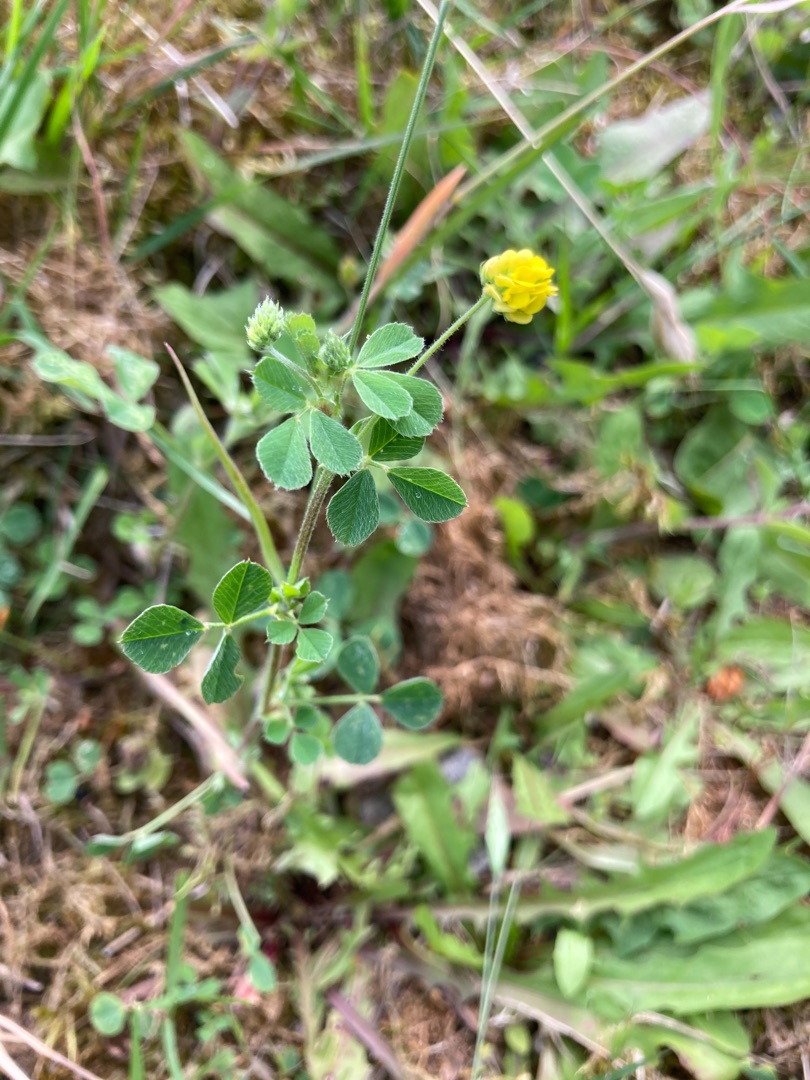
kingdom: Plantae
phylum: Tracheophyta
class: Magnoliopsida
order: Fabales
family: Fabaceae
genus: Medicago
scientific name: Medicago lupulina
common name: Humle-sneglebælg
